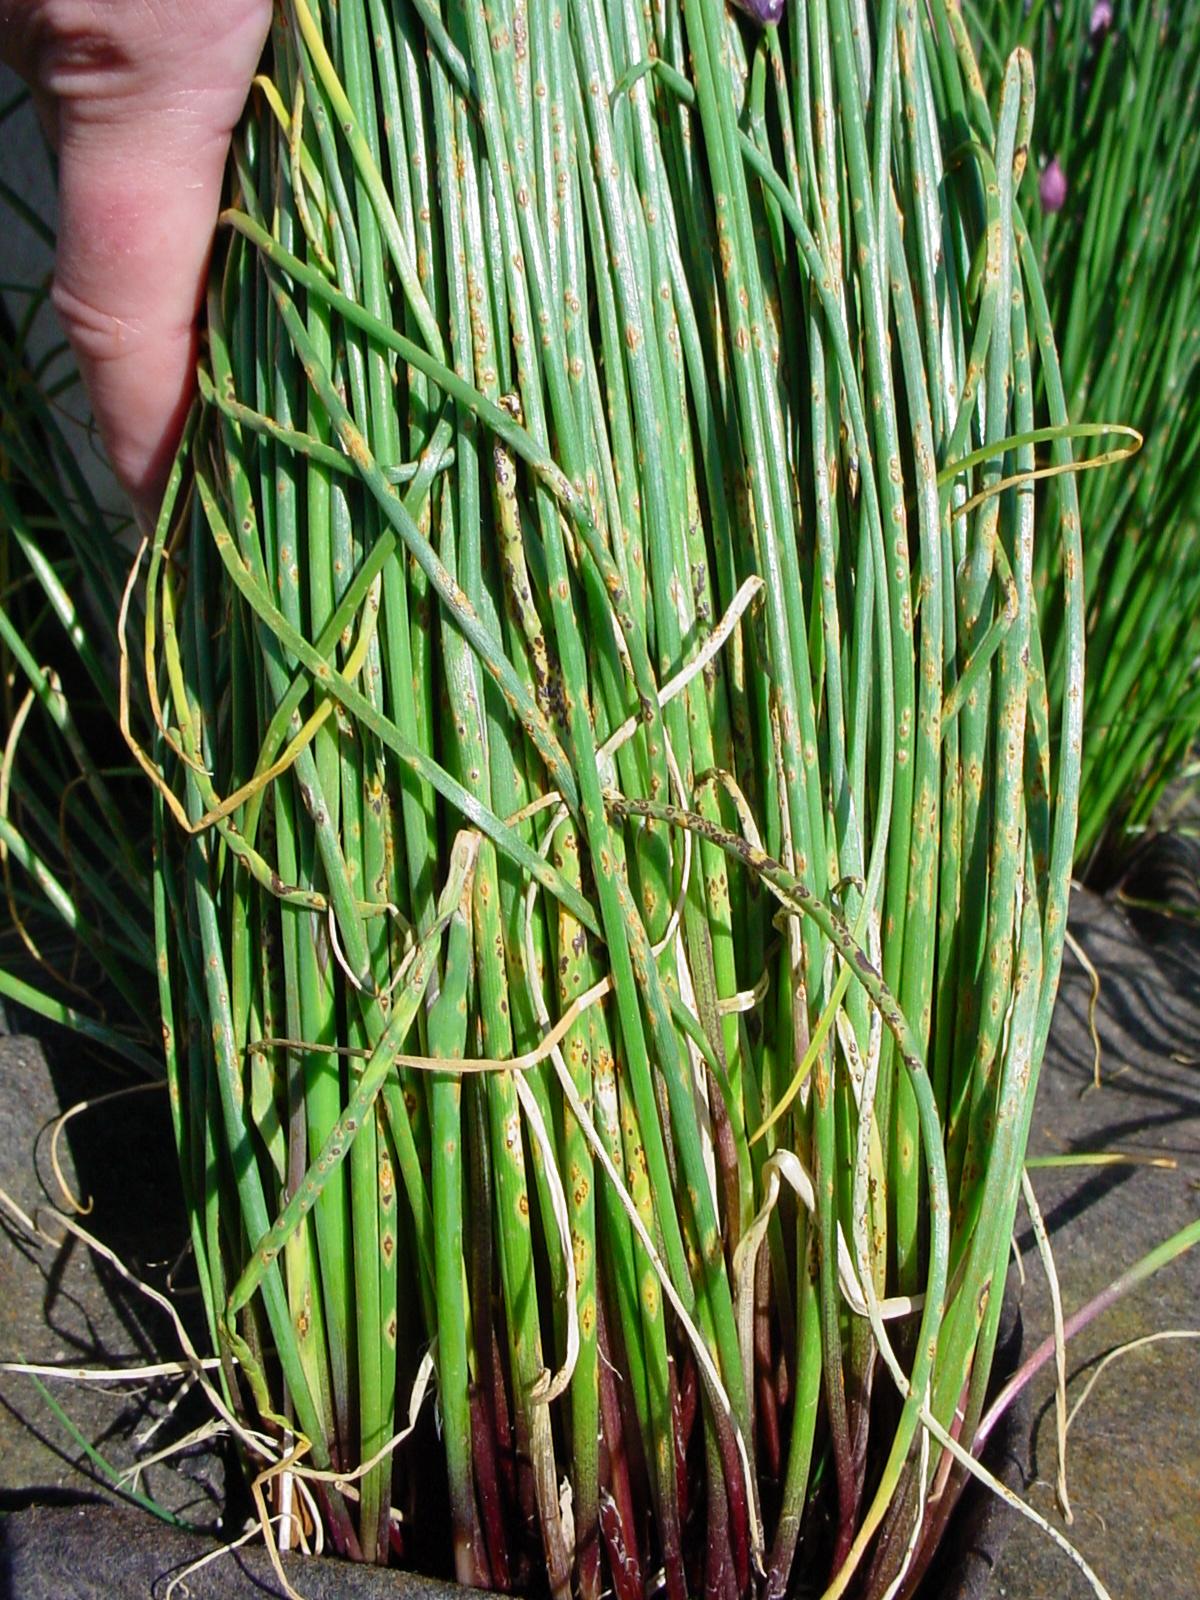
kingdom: Plantae
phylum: Tracheophyta
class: Liliopsida
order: Asparagales
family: Amaryllidaceae
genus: Allium
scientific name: Allium schoenoprasum
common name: Chives
